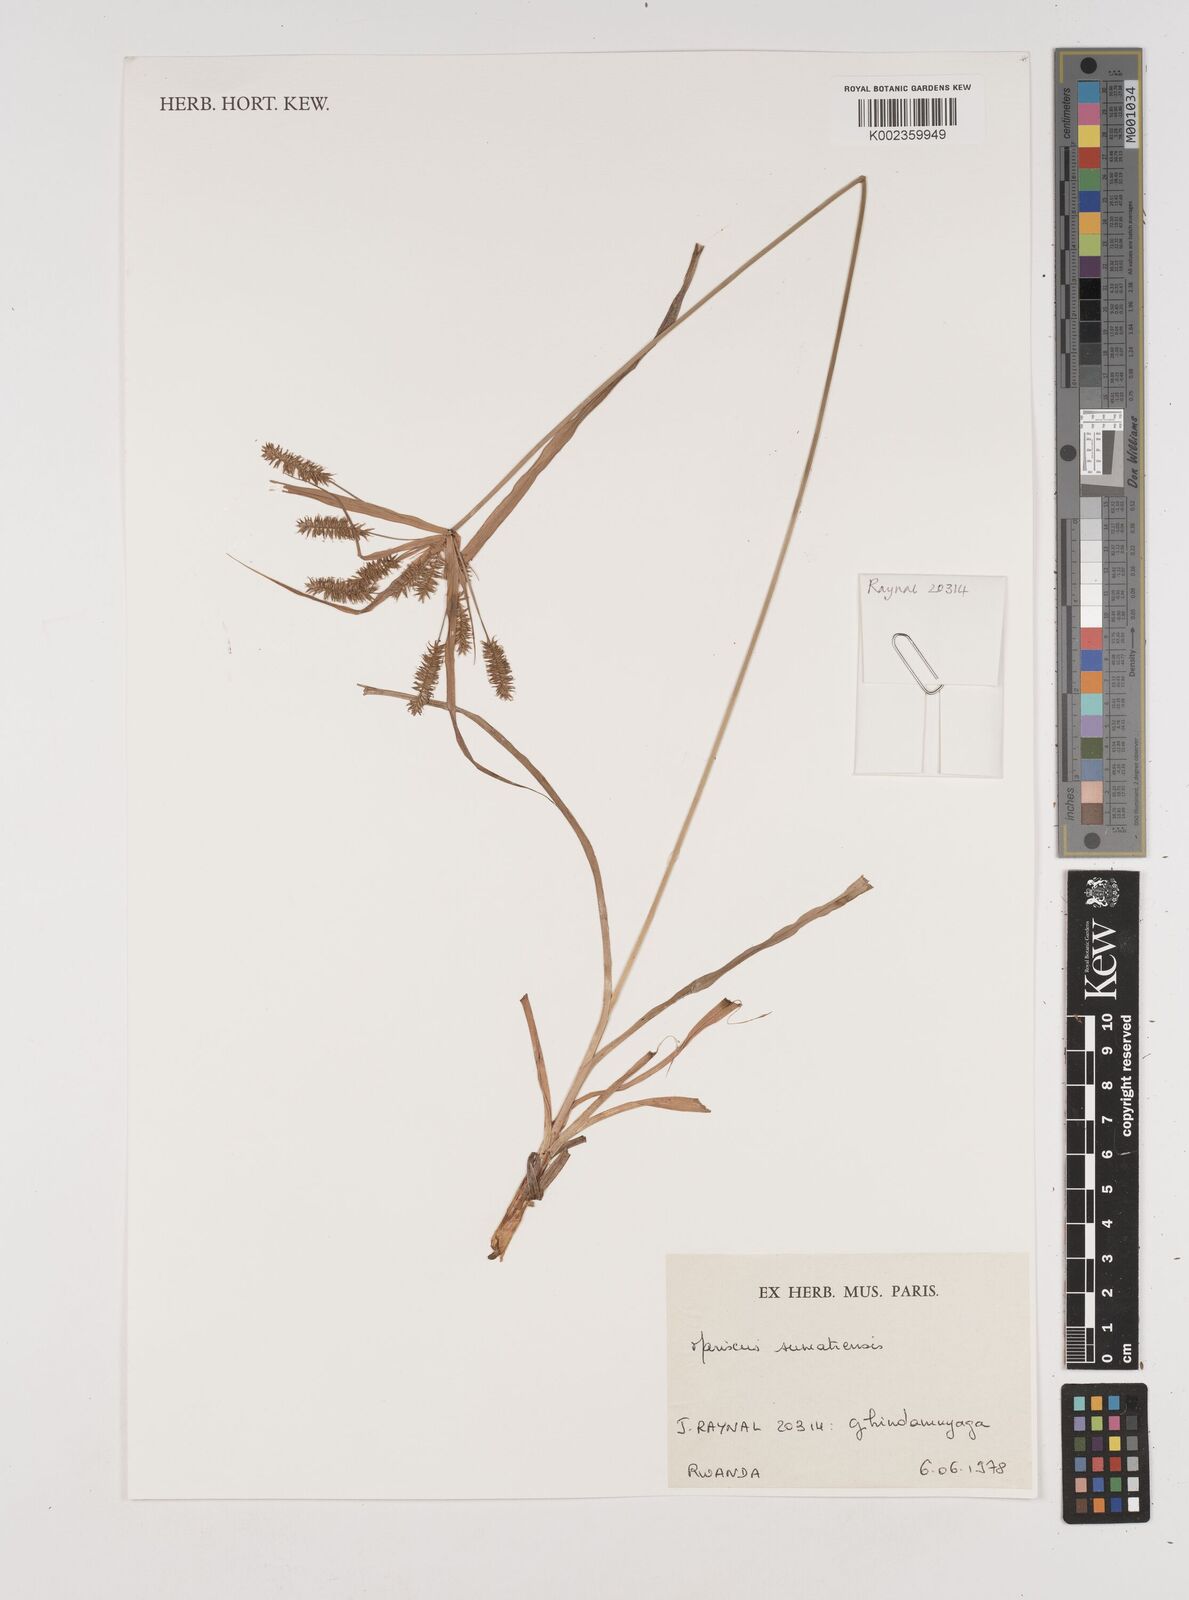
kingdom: Plantae
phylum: Tracheophyta
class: Liliopsida
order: Poales
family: Cyperaceae
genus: Cyperus
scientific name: Cyperus cyperoides
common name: Pacific island flat sedge
